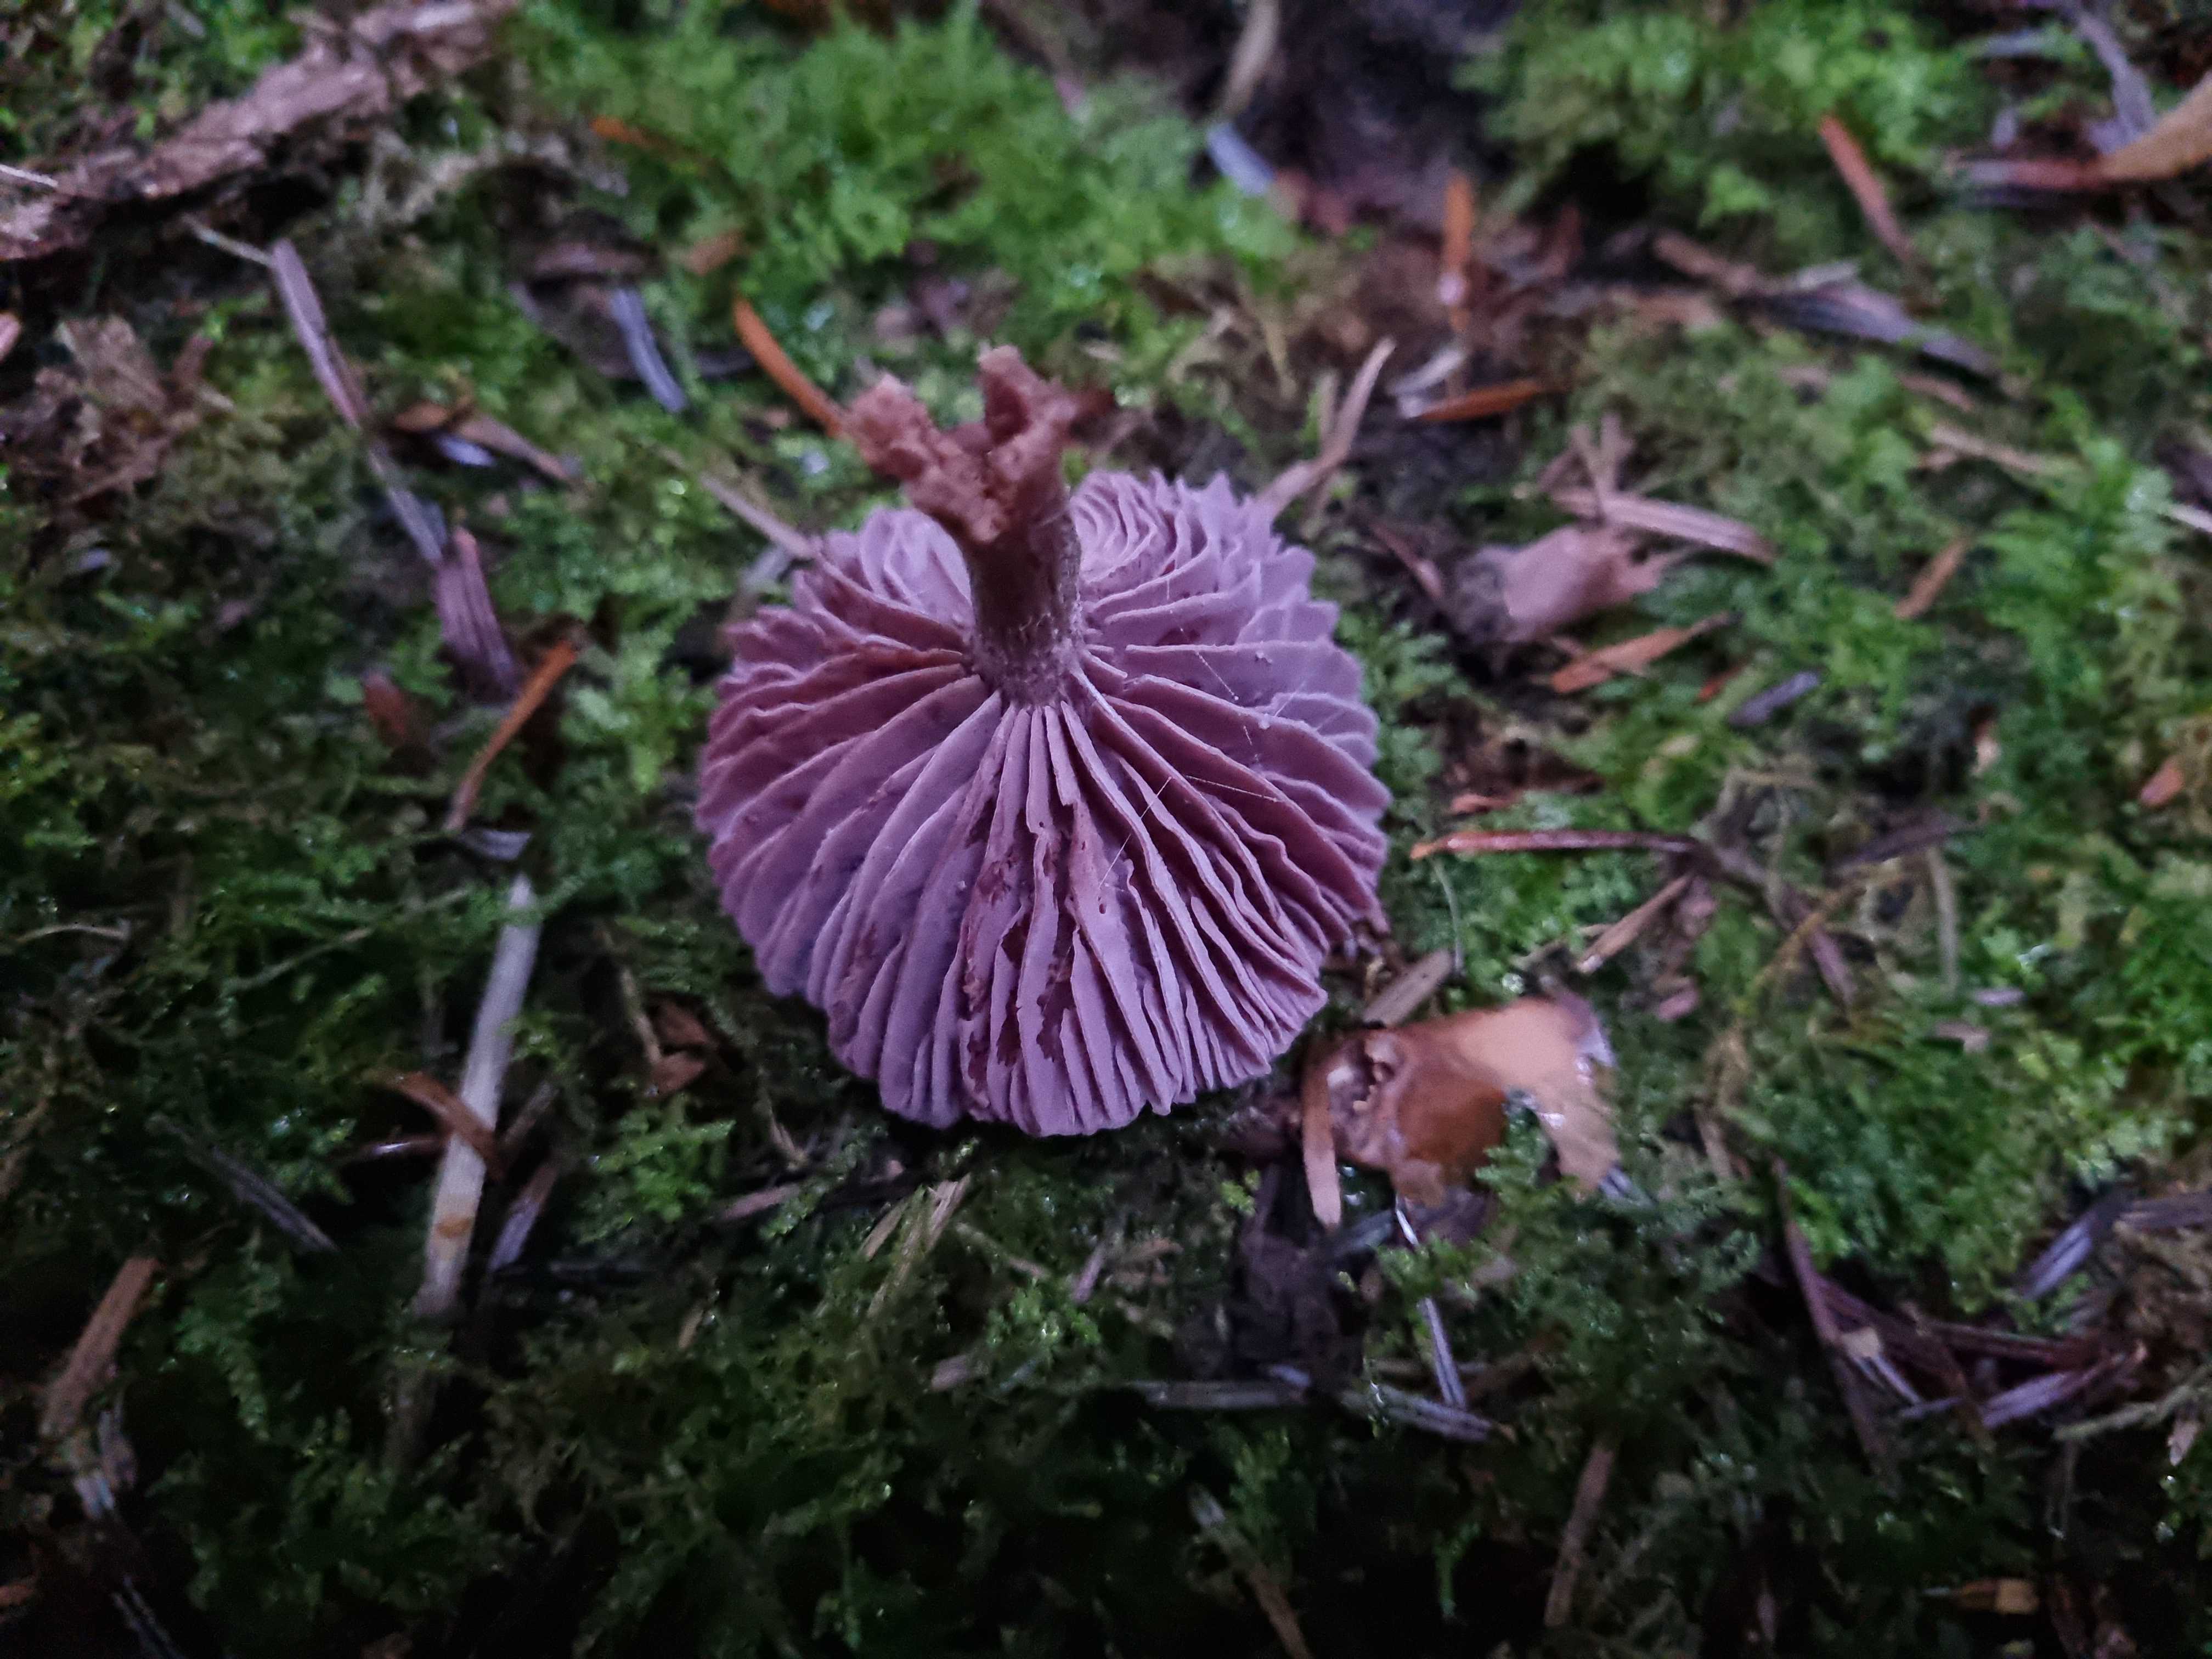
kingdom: Fungi
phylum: Basidiomycota
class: Agaricomycetes
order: Agaricales
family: Hydnangiaceae
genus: Laccaria
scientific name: Laccaria amethystina
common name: violet ametysthat
